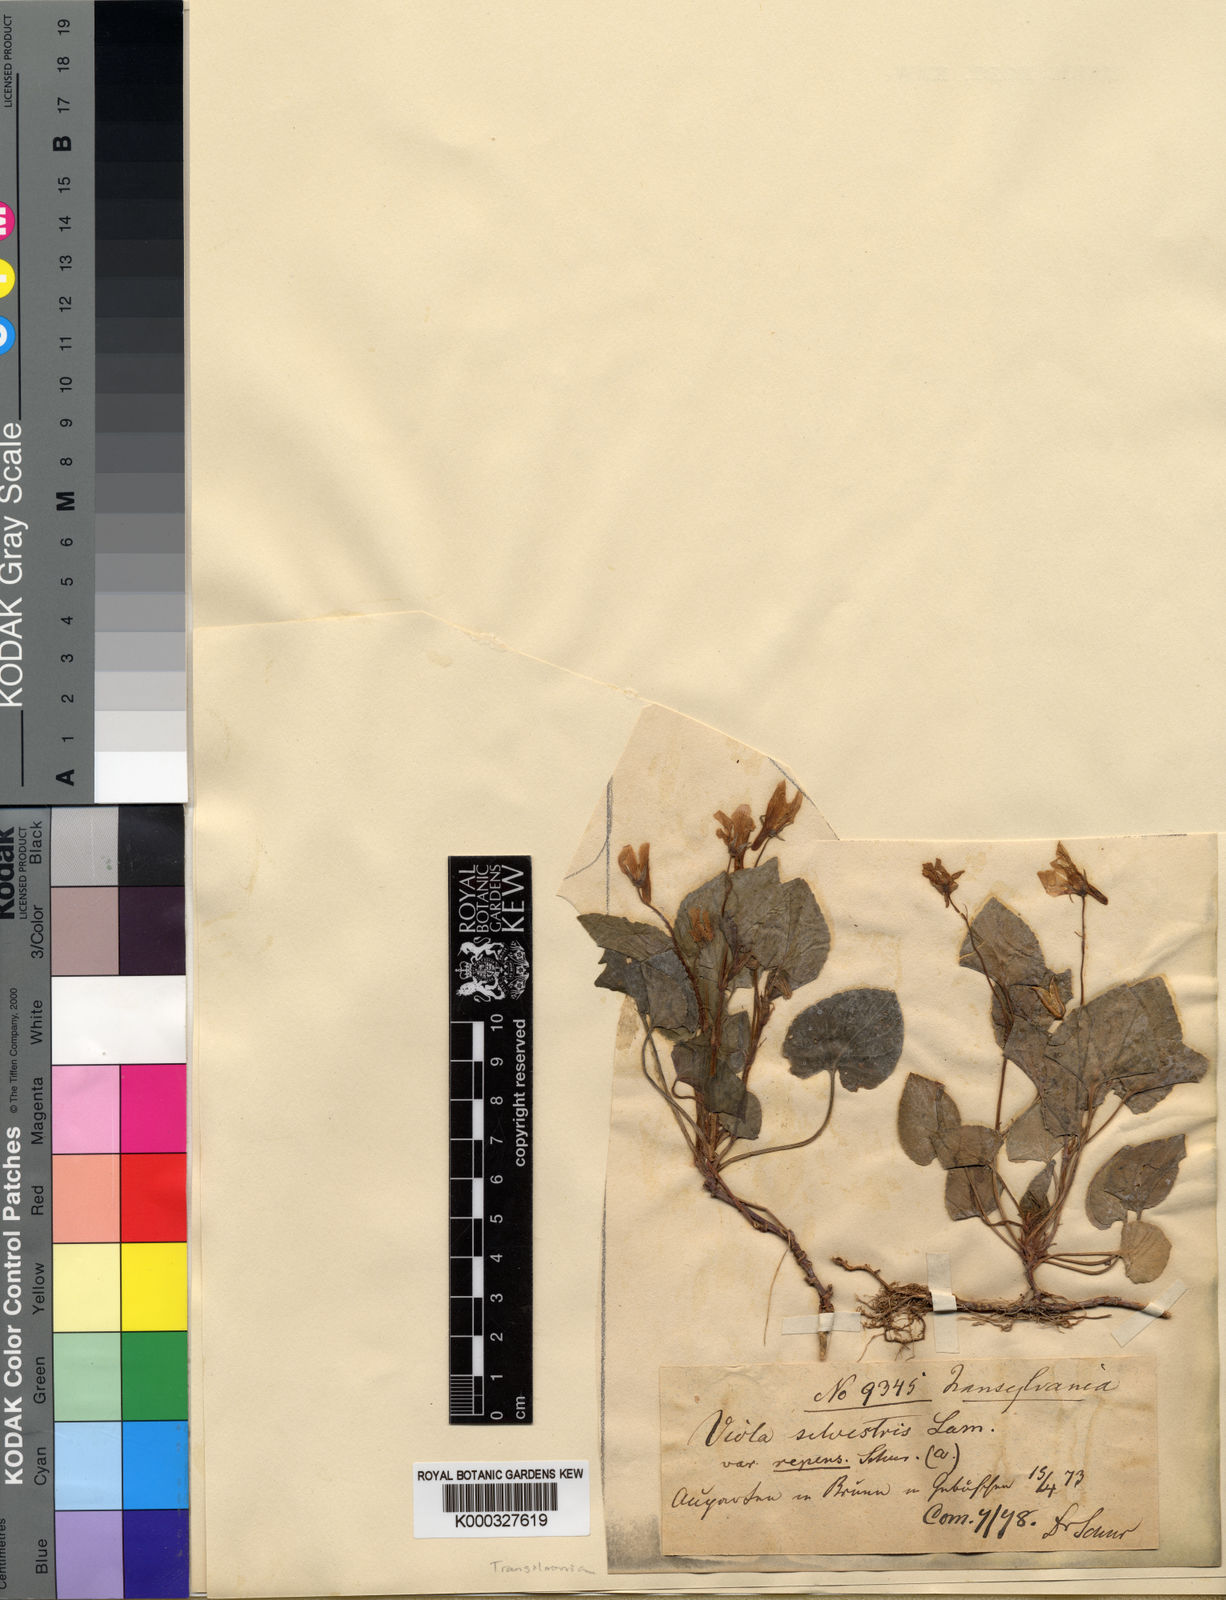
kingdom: Plantae
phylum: Tracheophyta
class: Magnoliopsida
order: Malpighiales
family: Violaceae
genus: Viola
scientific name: Viola reichenbachiana
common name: Early dog-violet
